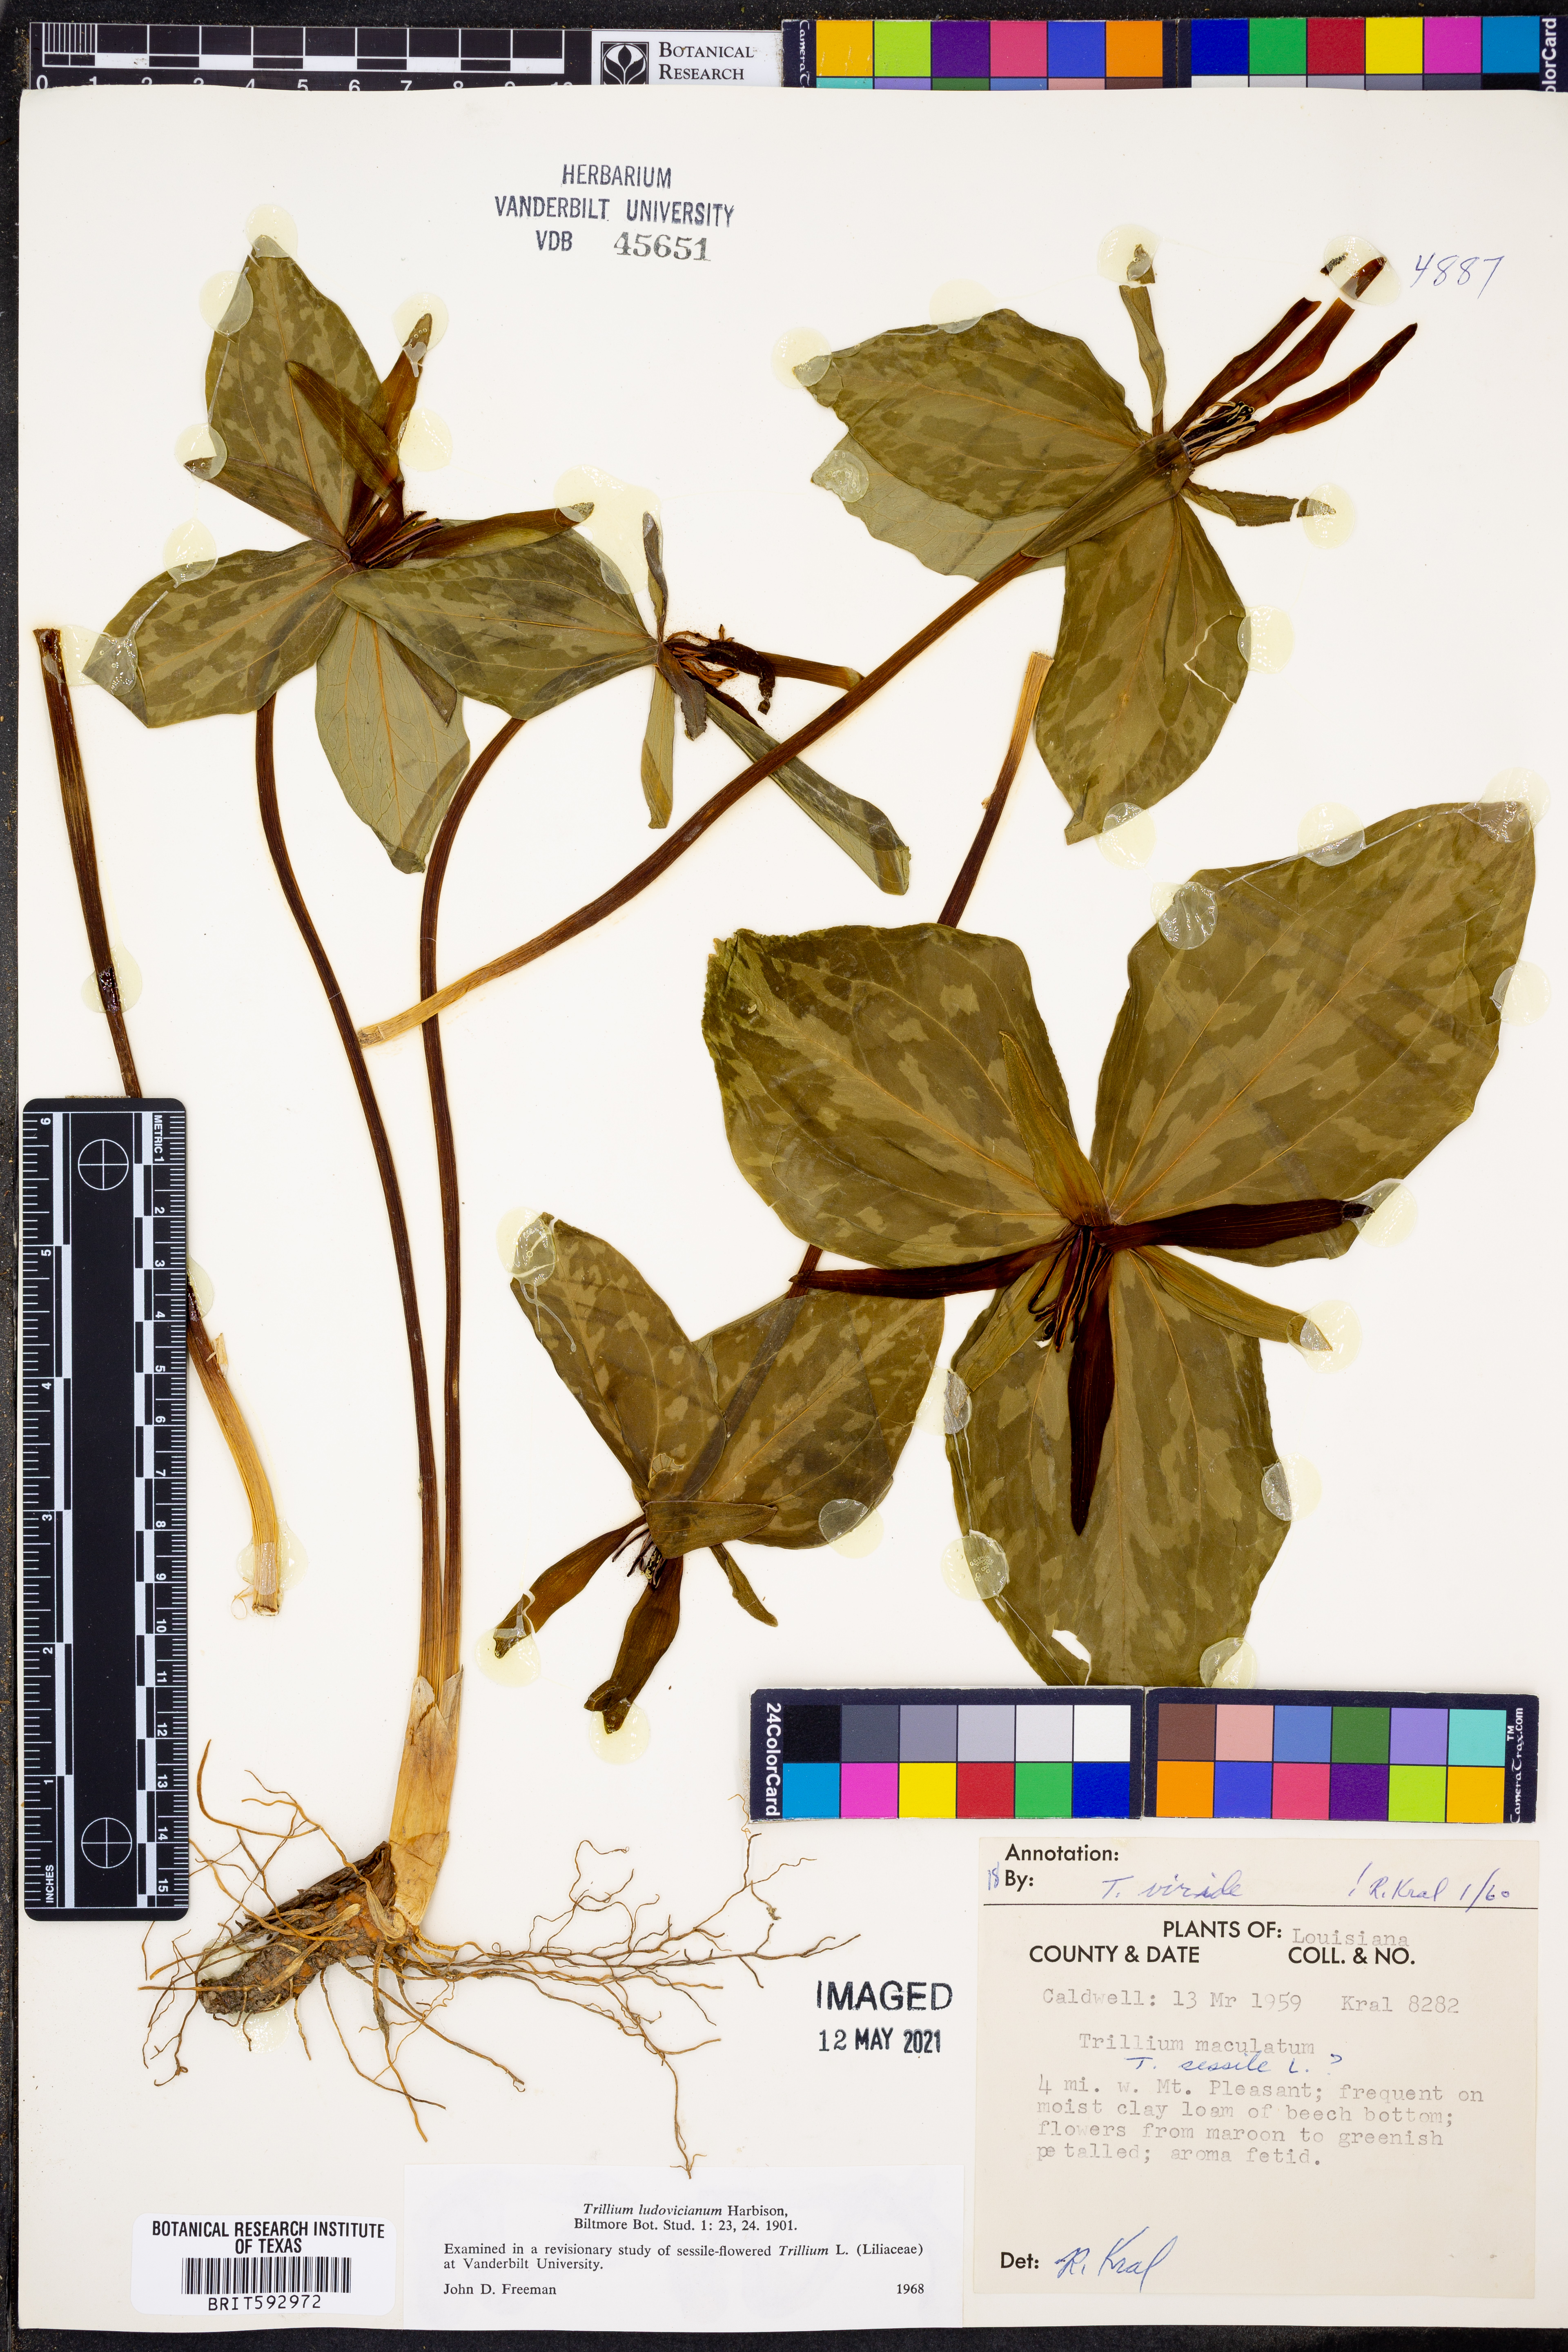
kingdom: Plantae
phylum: Tracheophyta
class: Liliopsida
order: Liliales
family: Melanthiaceae
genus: Trillium
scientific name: Trillium ludovicianum
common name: Louisiana toadshade
